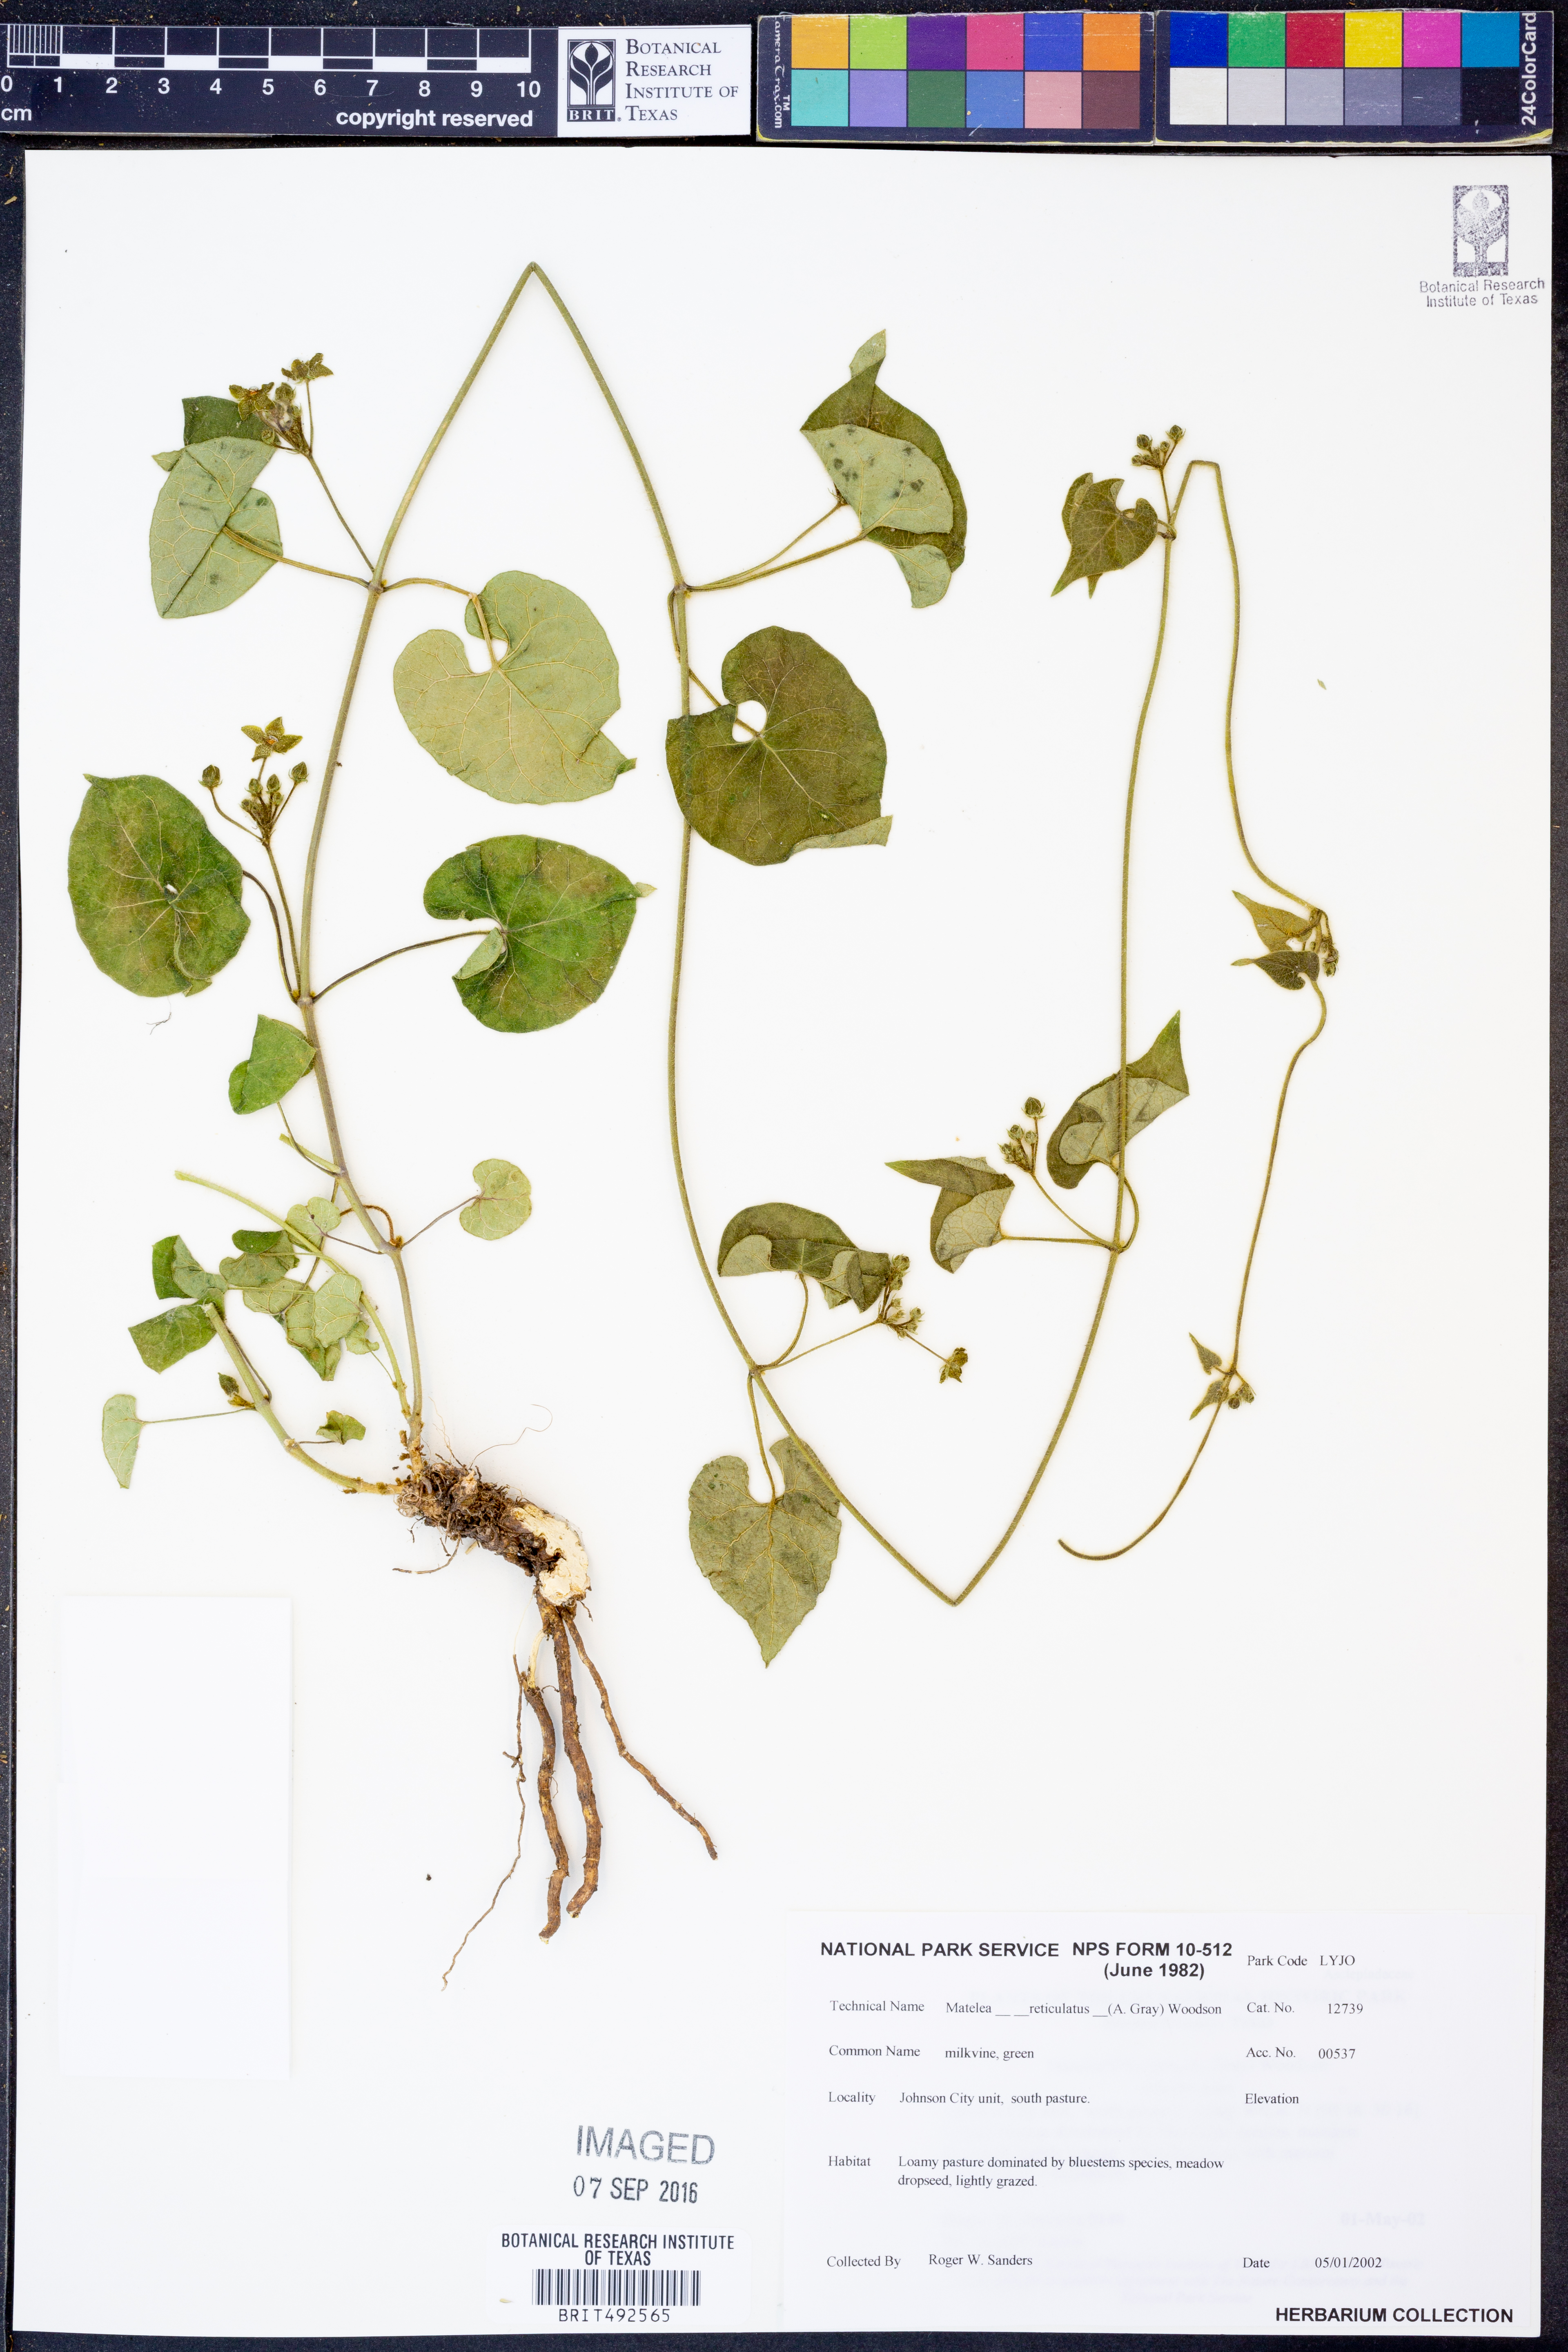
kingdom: Plantae
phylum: Tracheophyta
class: Magnoliopsida
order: Gentianales
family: Apocynaceae
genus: Dictyanthus
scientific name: Dictyanthus reticulatus
